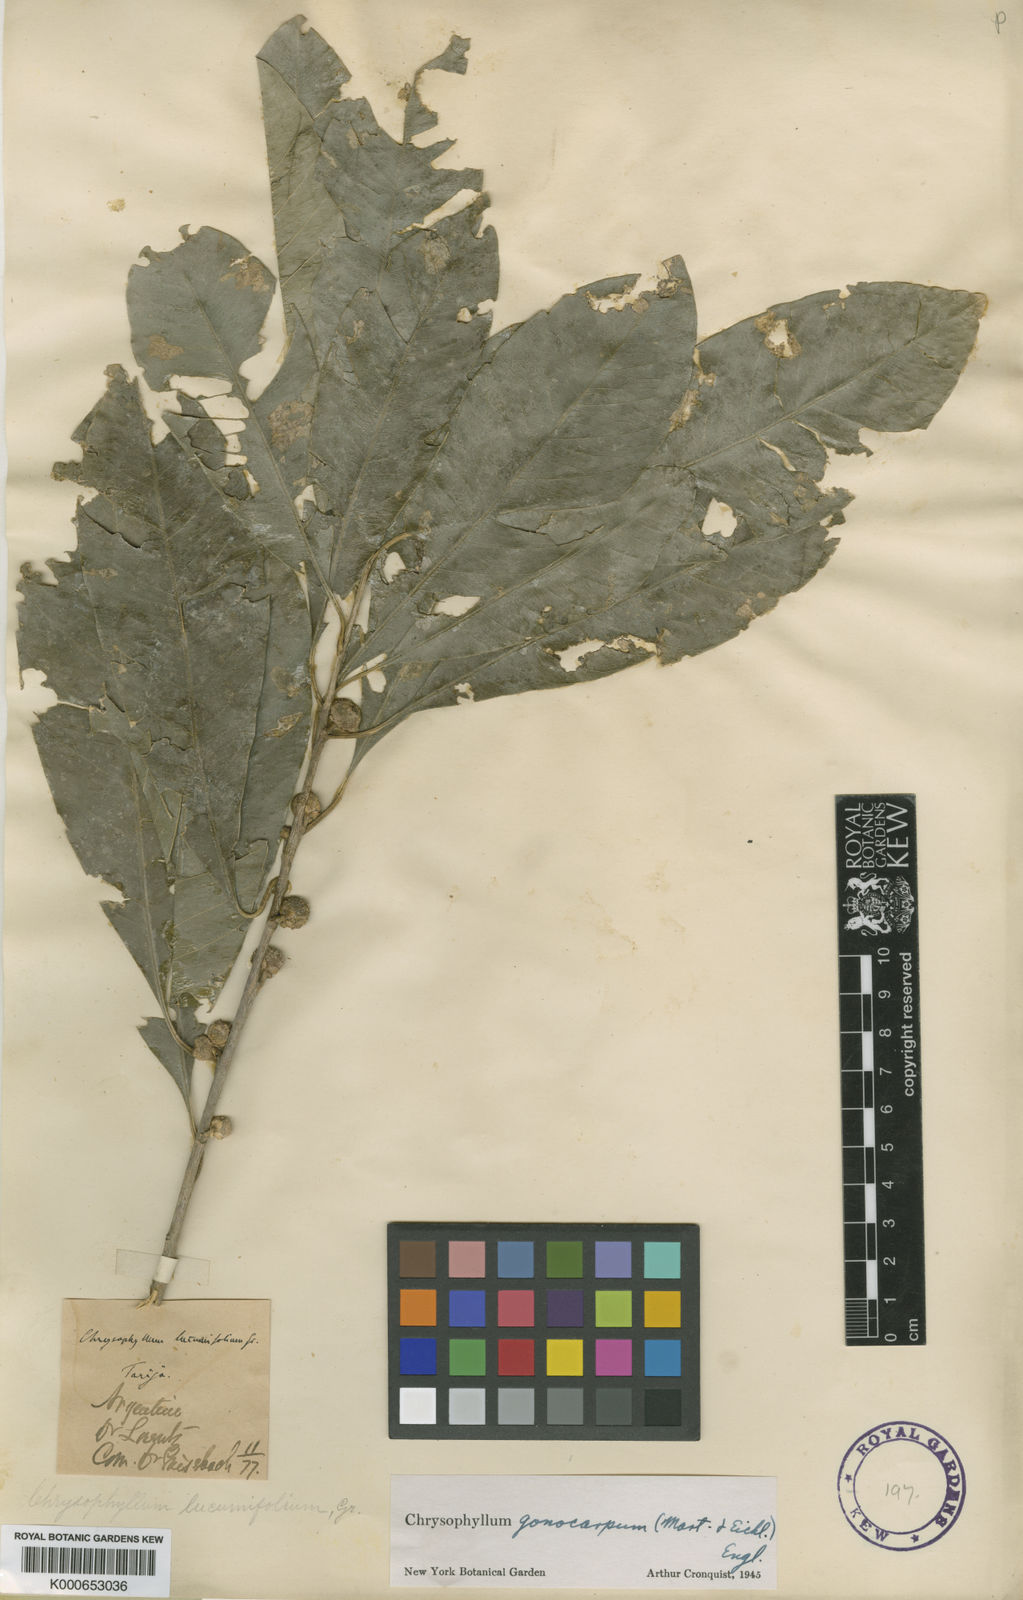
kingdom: Plantae
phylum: Tracheophyta
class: Magnoliopsida
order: Ericales
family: Sapotaceae
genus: Chrysophyllum
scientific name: Chrysophyllum gonocarpum
